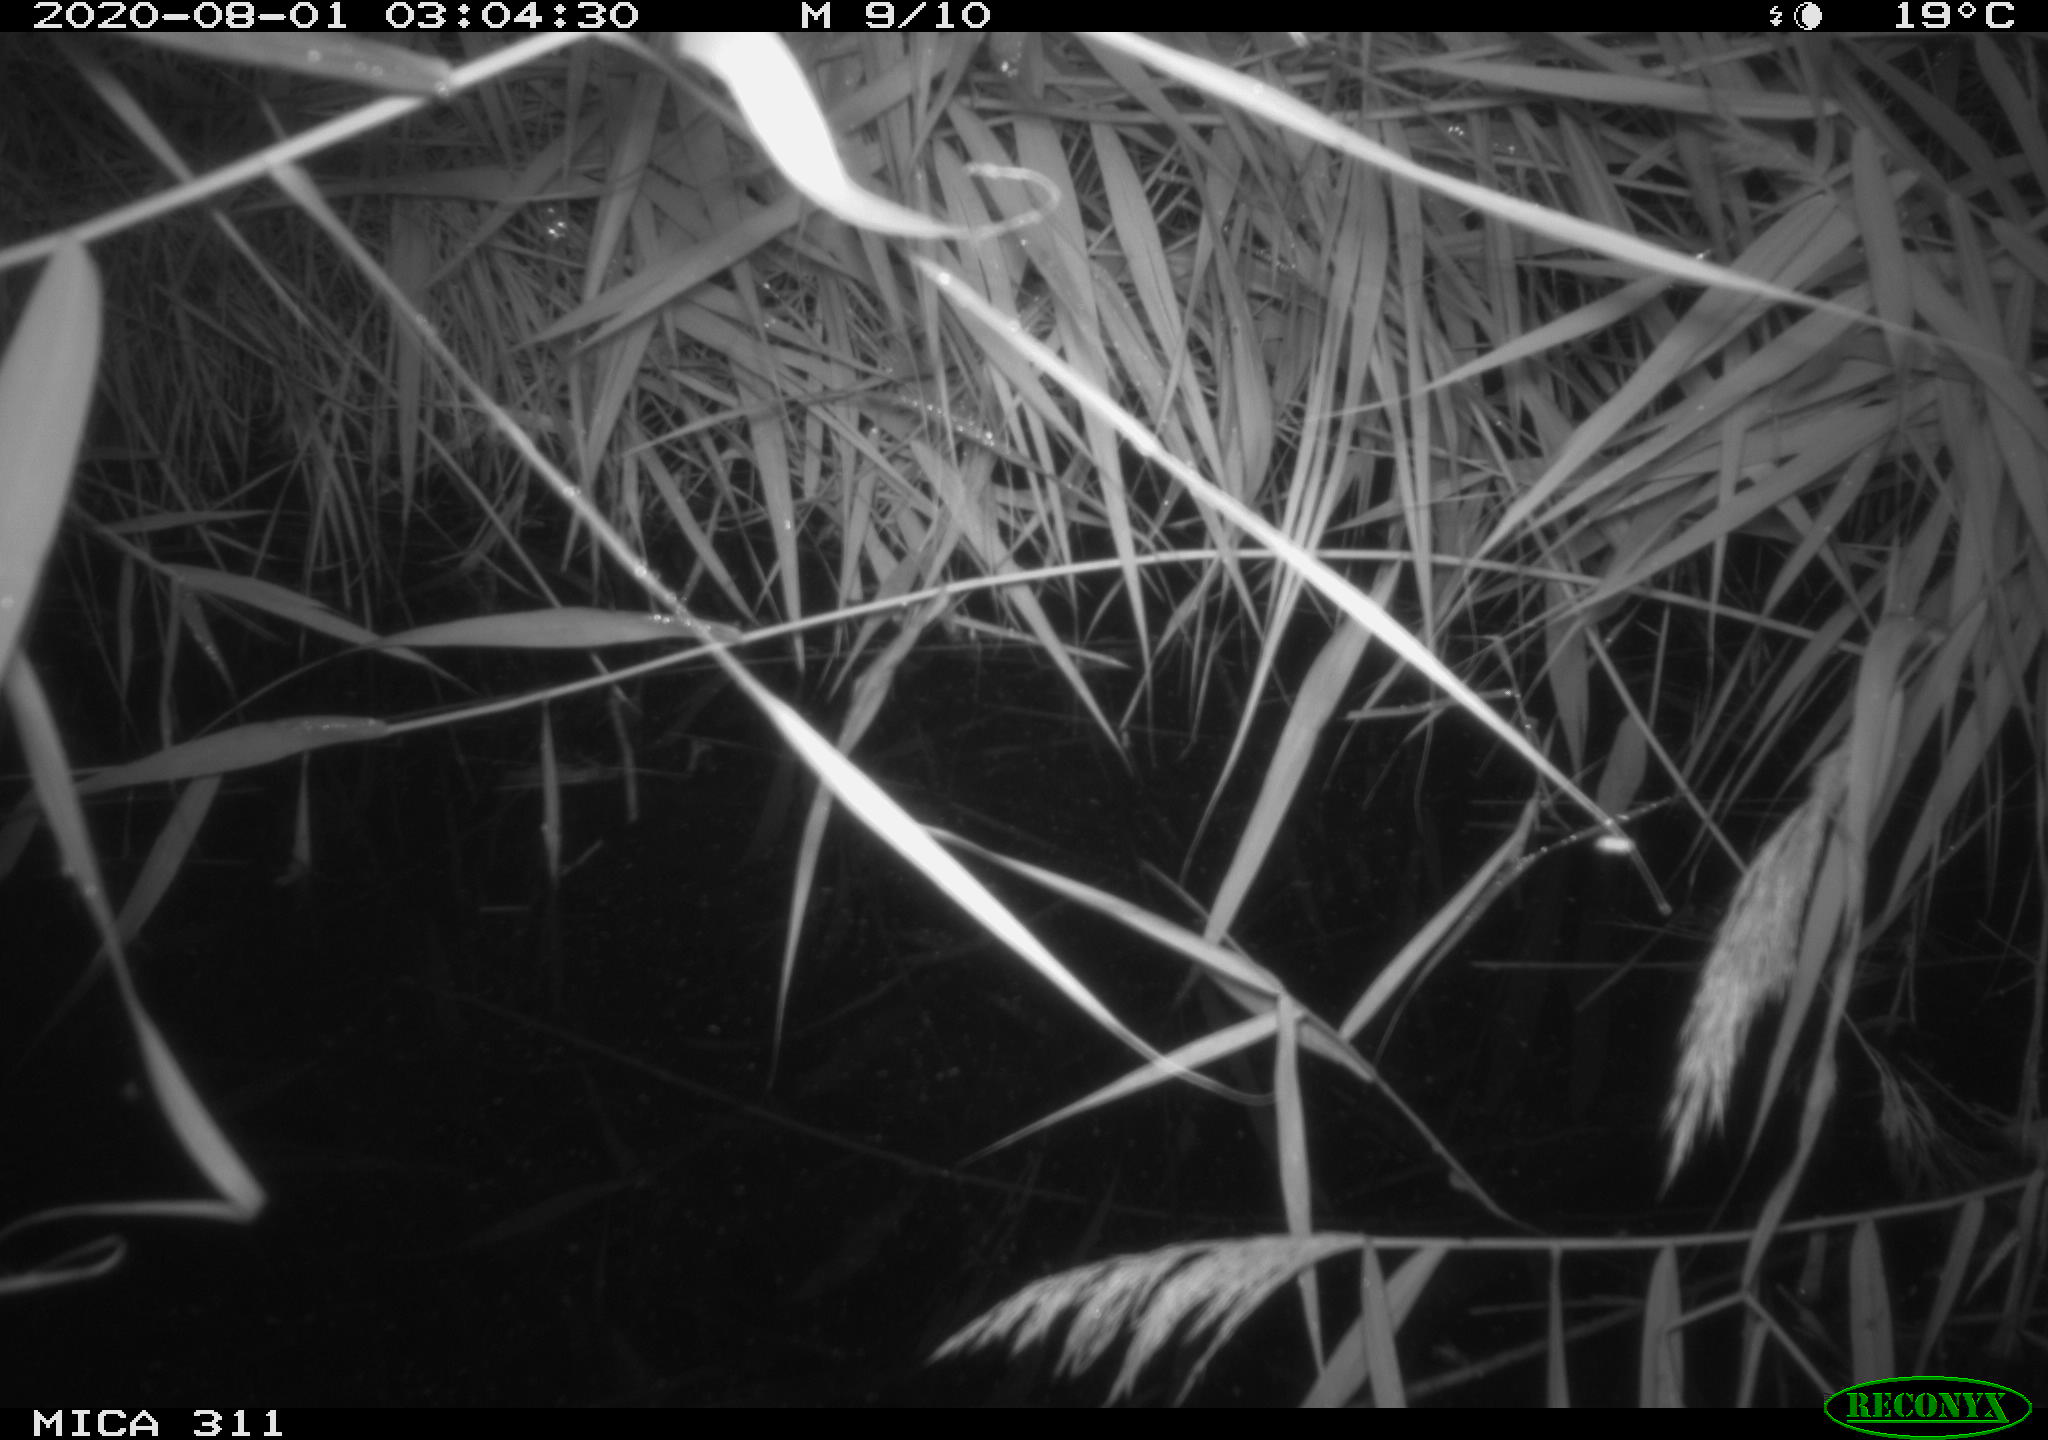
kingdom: Animalia
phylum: Chordata
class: Mammalia
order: Rodentia
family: Muridae
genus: Rattus
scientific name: Rattus norvegicus
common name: Brown rat
